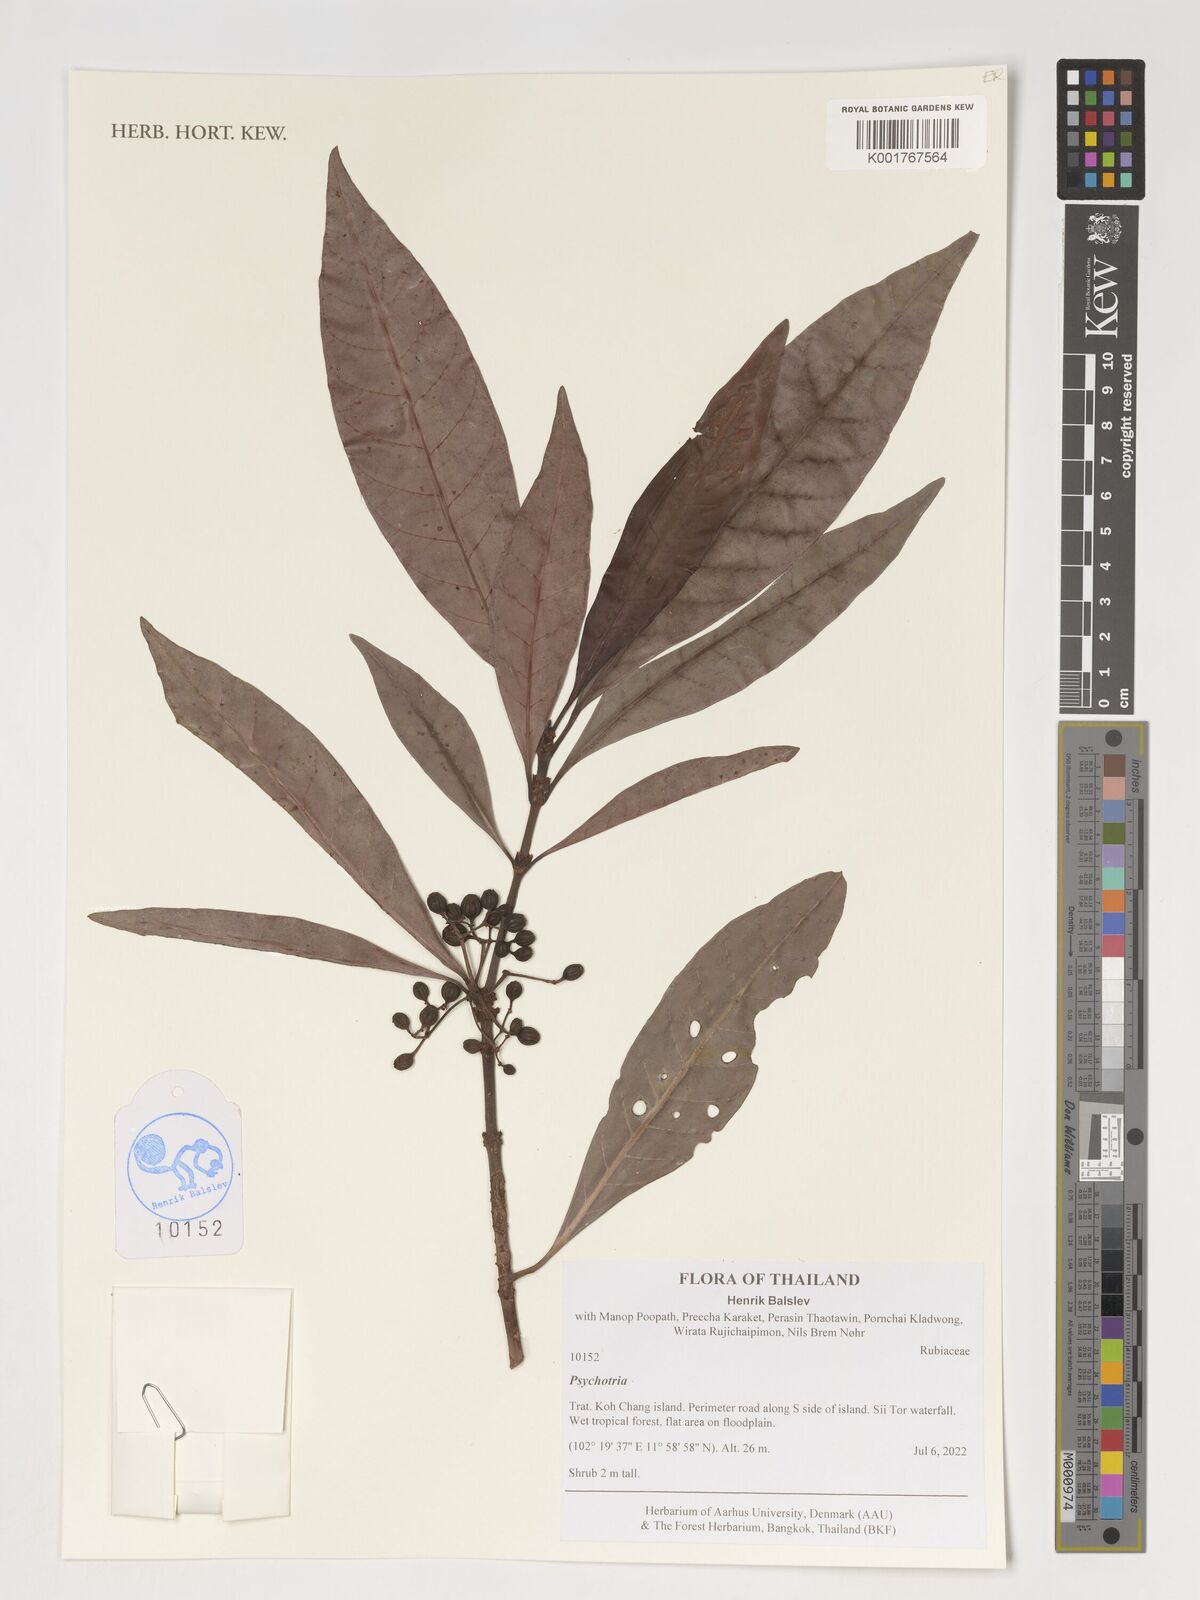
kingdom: Plantae
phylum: Tracheophyta
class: Magnoliopsida
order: Gentianales
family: Rubiaceae
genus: Psychotria
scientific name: Psychotria
